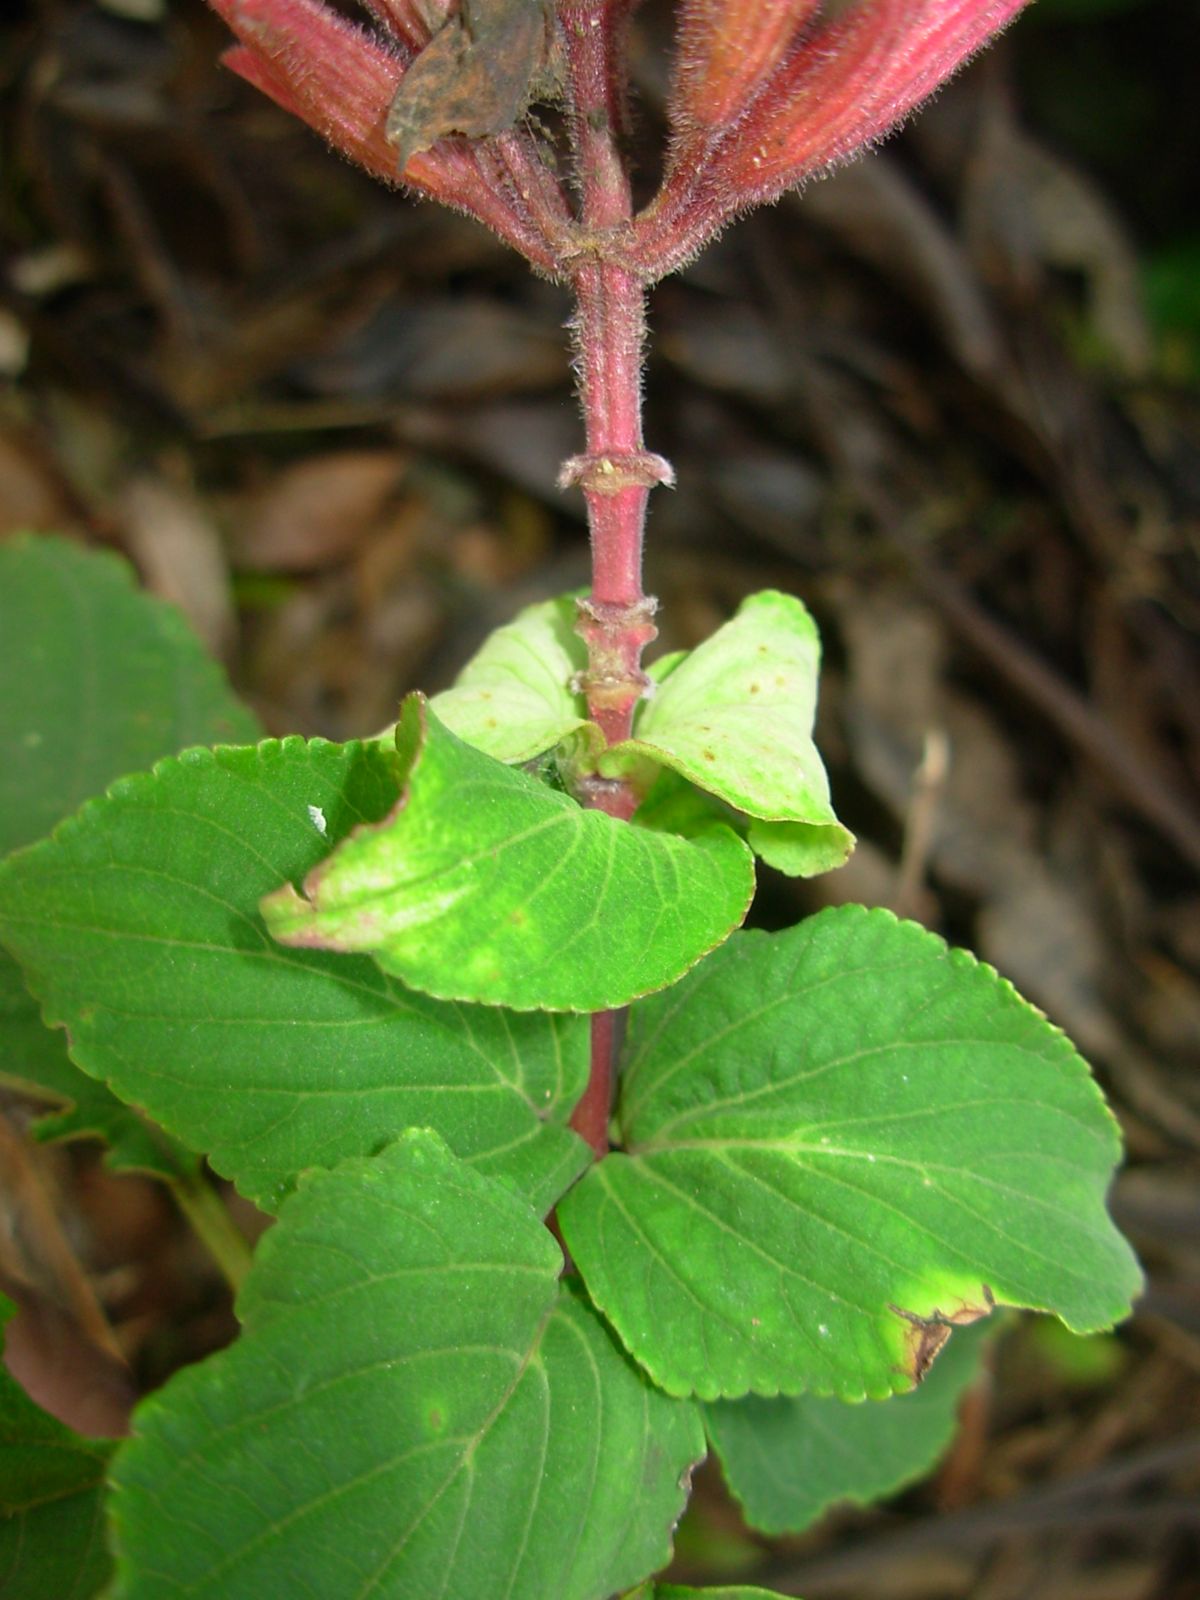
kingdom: Plantae
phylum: Tracheophyta
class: Magnoliopsida
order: Lamiales
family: Lamiaceae
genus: Salvia
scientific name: Salvia
